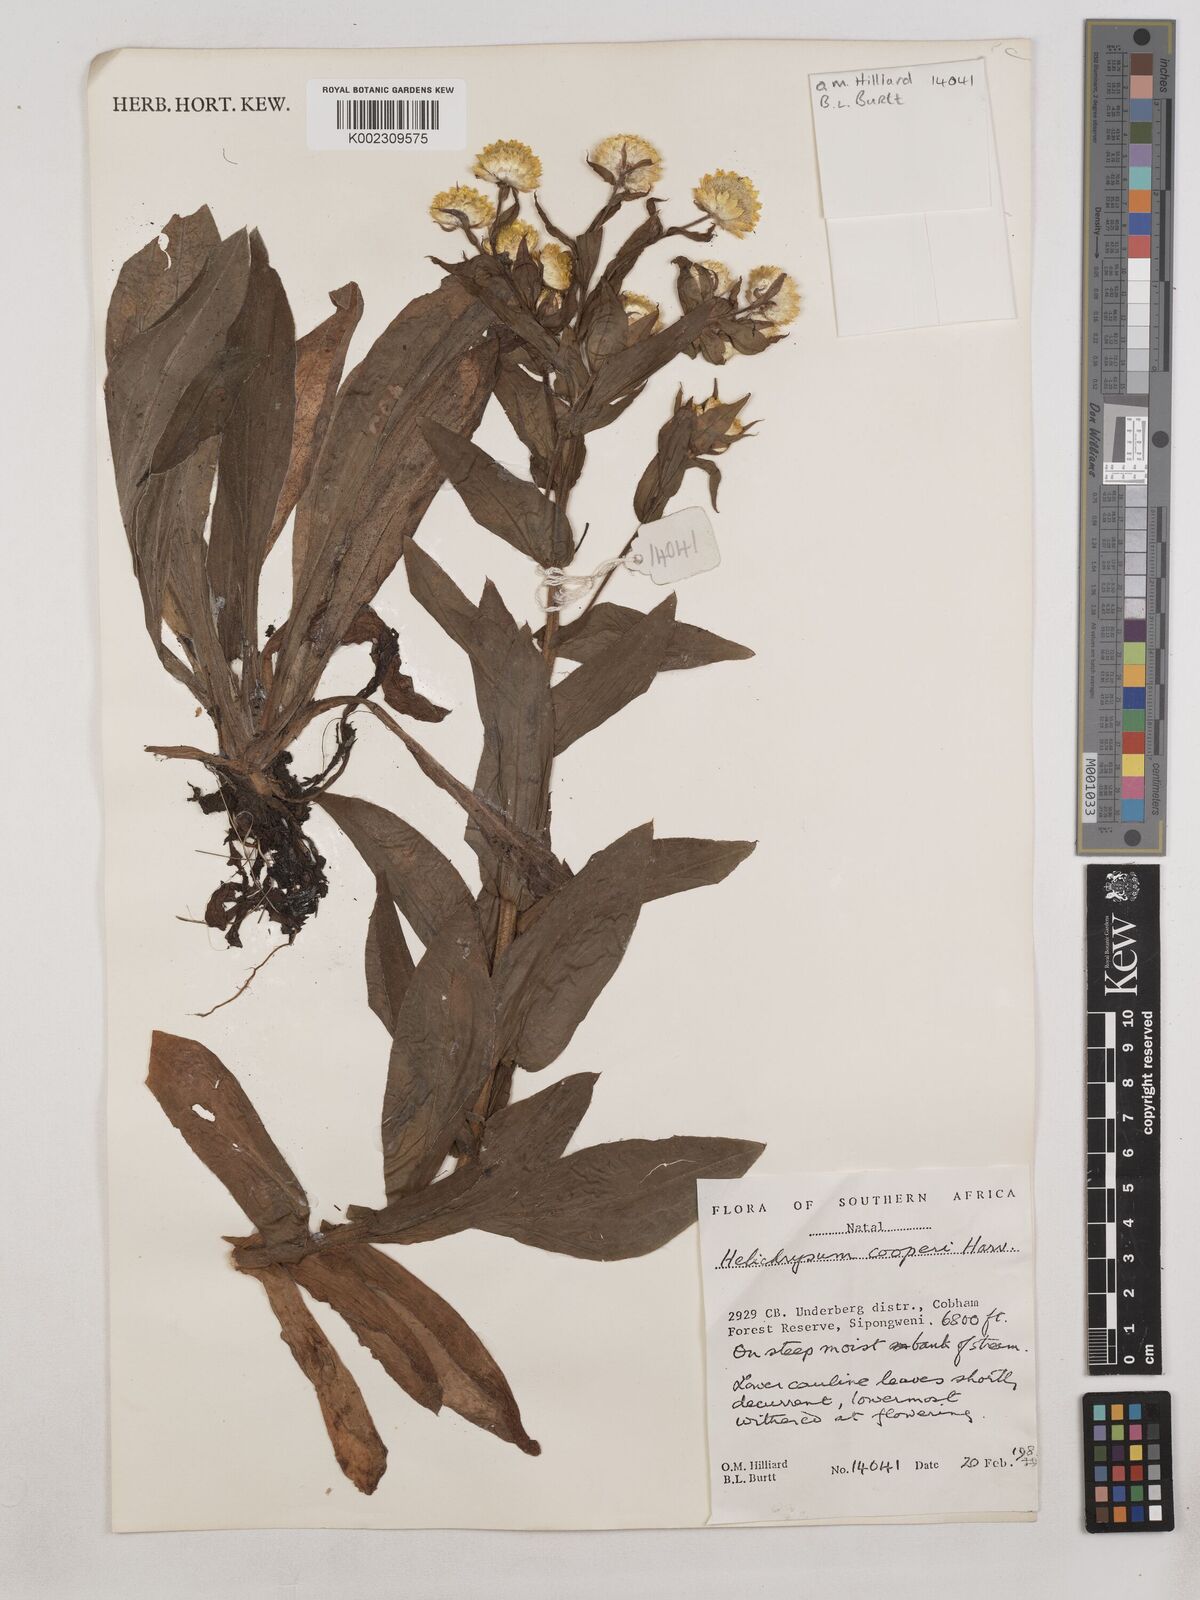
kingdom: Plantae
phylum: Tracheophyta
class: Magnoliopsida
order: Asterales
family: Asteraceae
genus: Helichrysum
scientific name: Helichrysum cooperi
